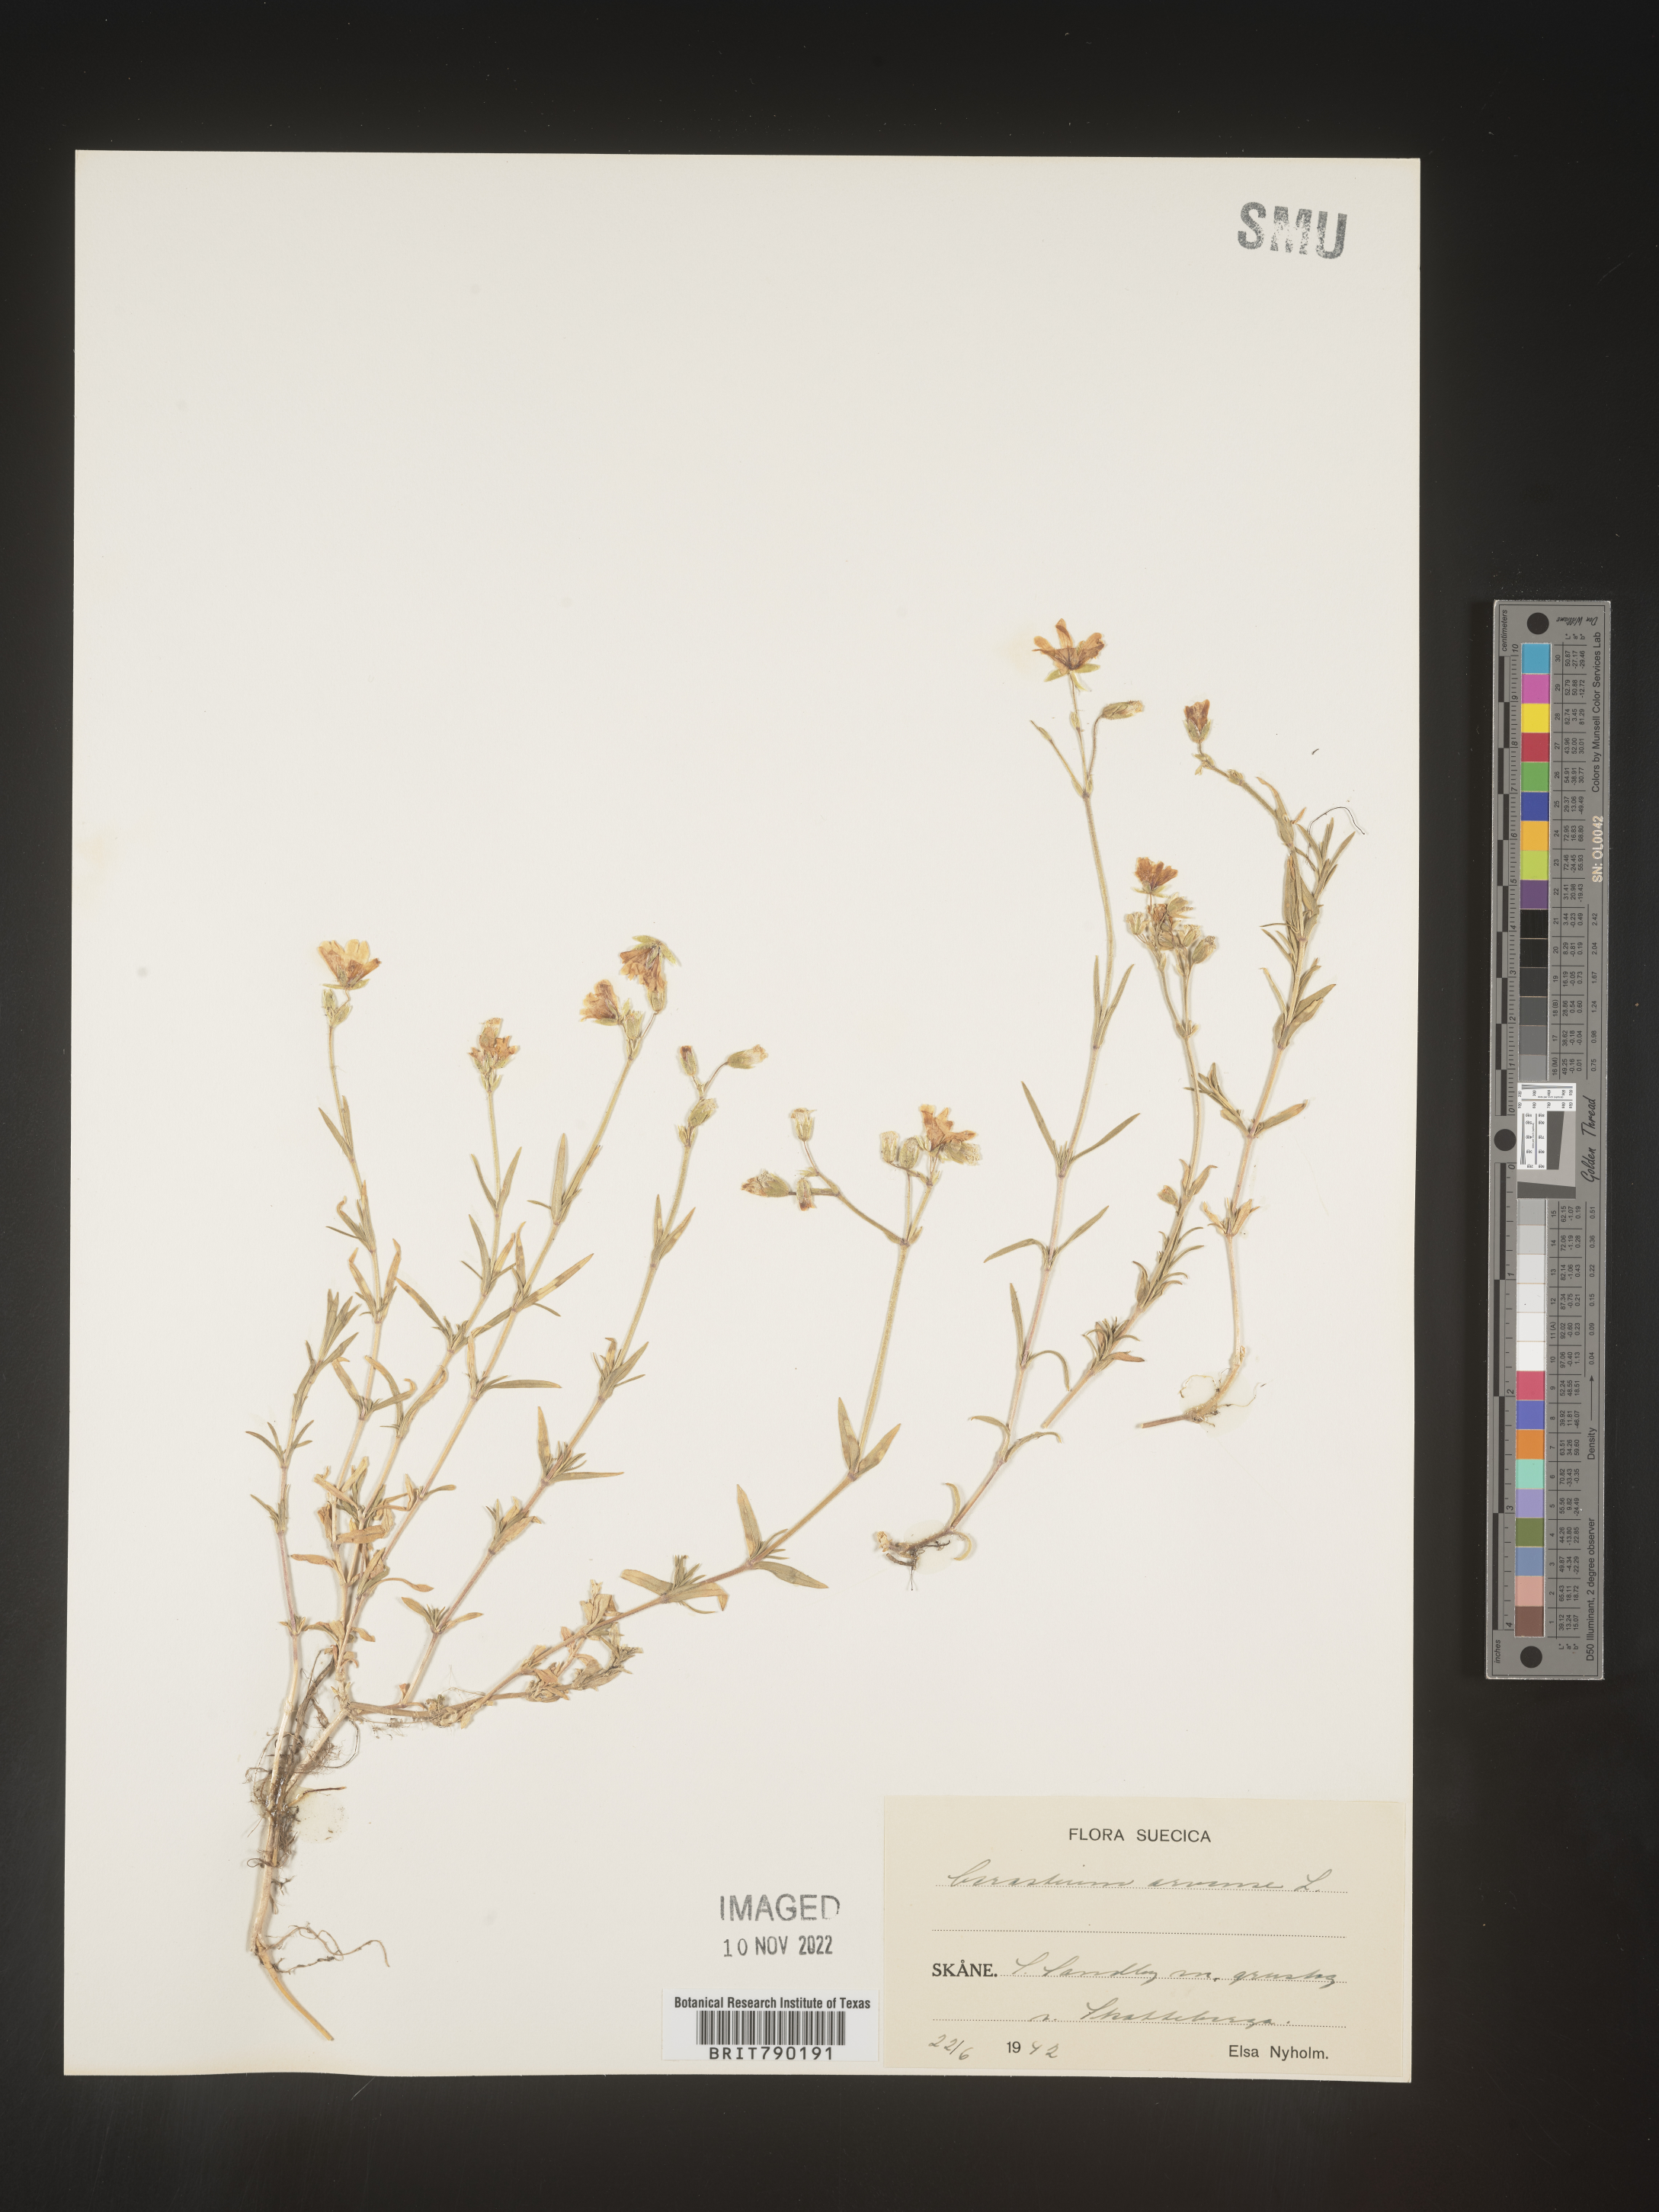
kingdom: Plantae
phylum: Tracheophyta
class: Magnoliopsida
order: Caryophyllales
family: Caryophyllaceae
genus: Cerastium
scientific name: Cerastium
